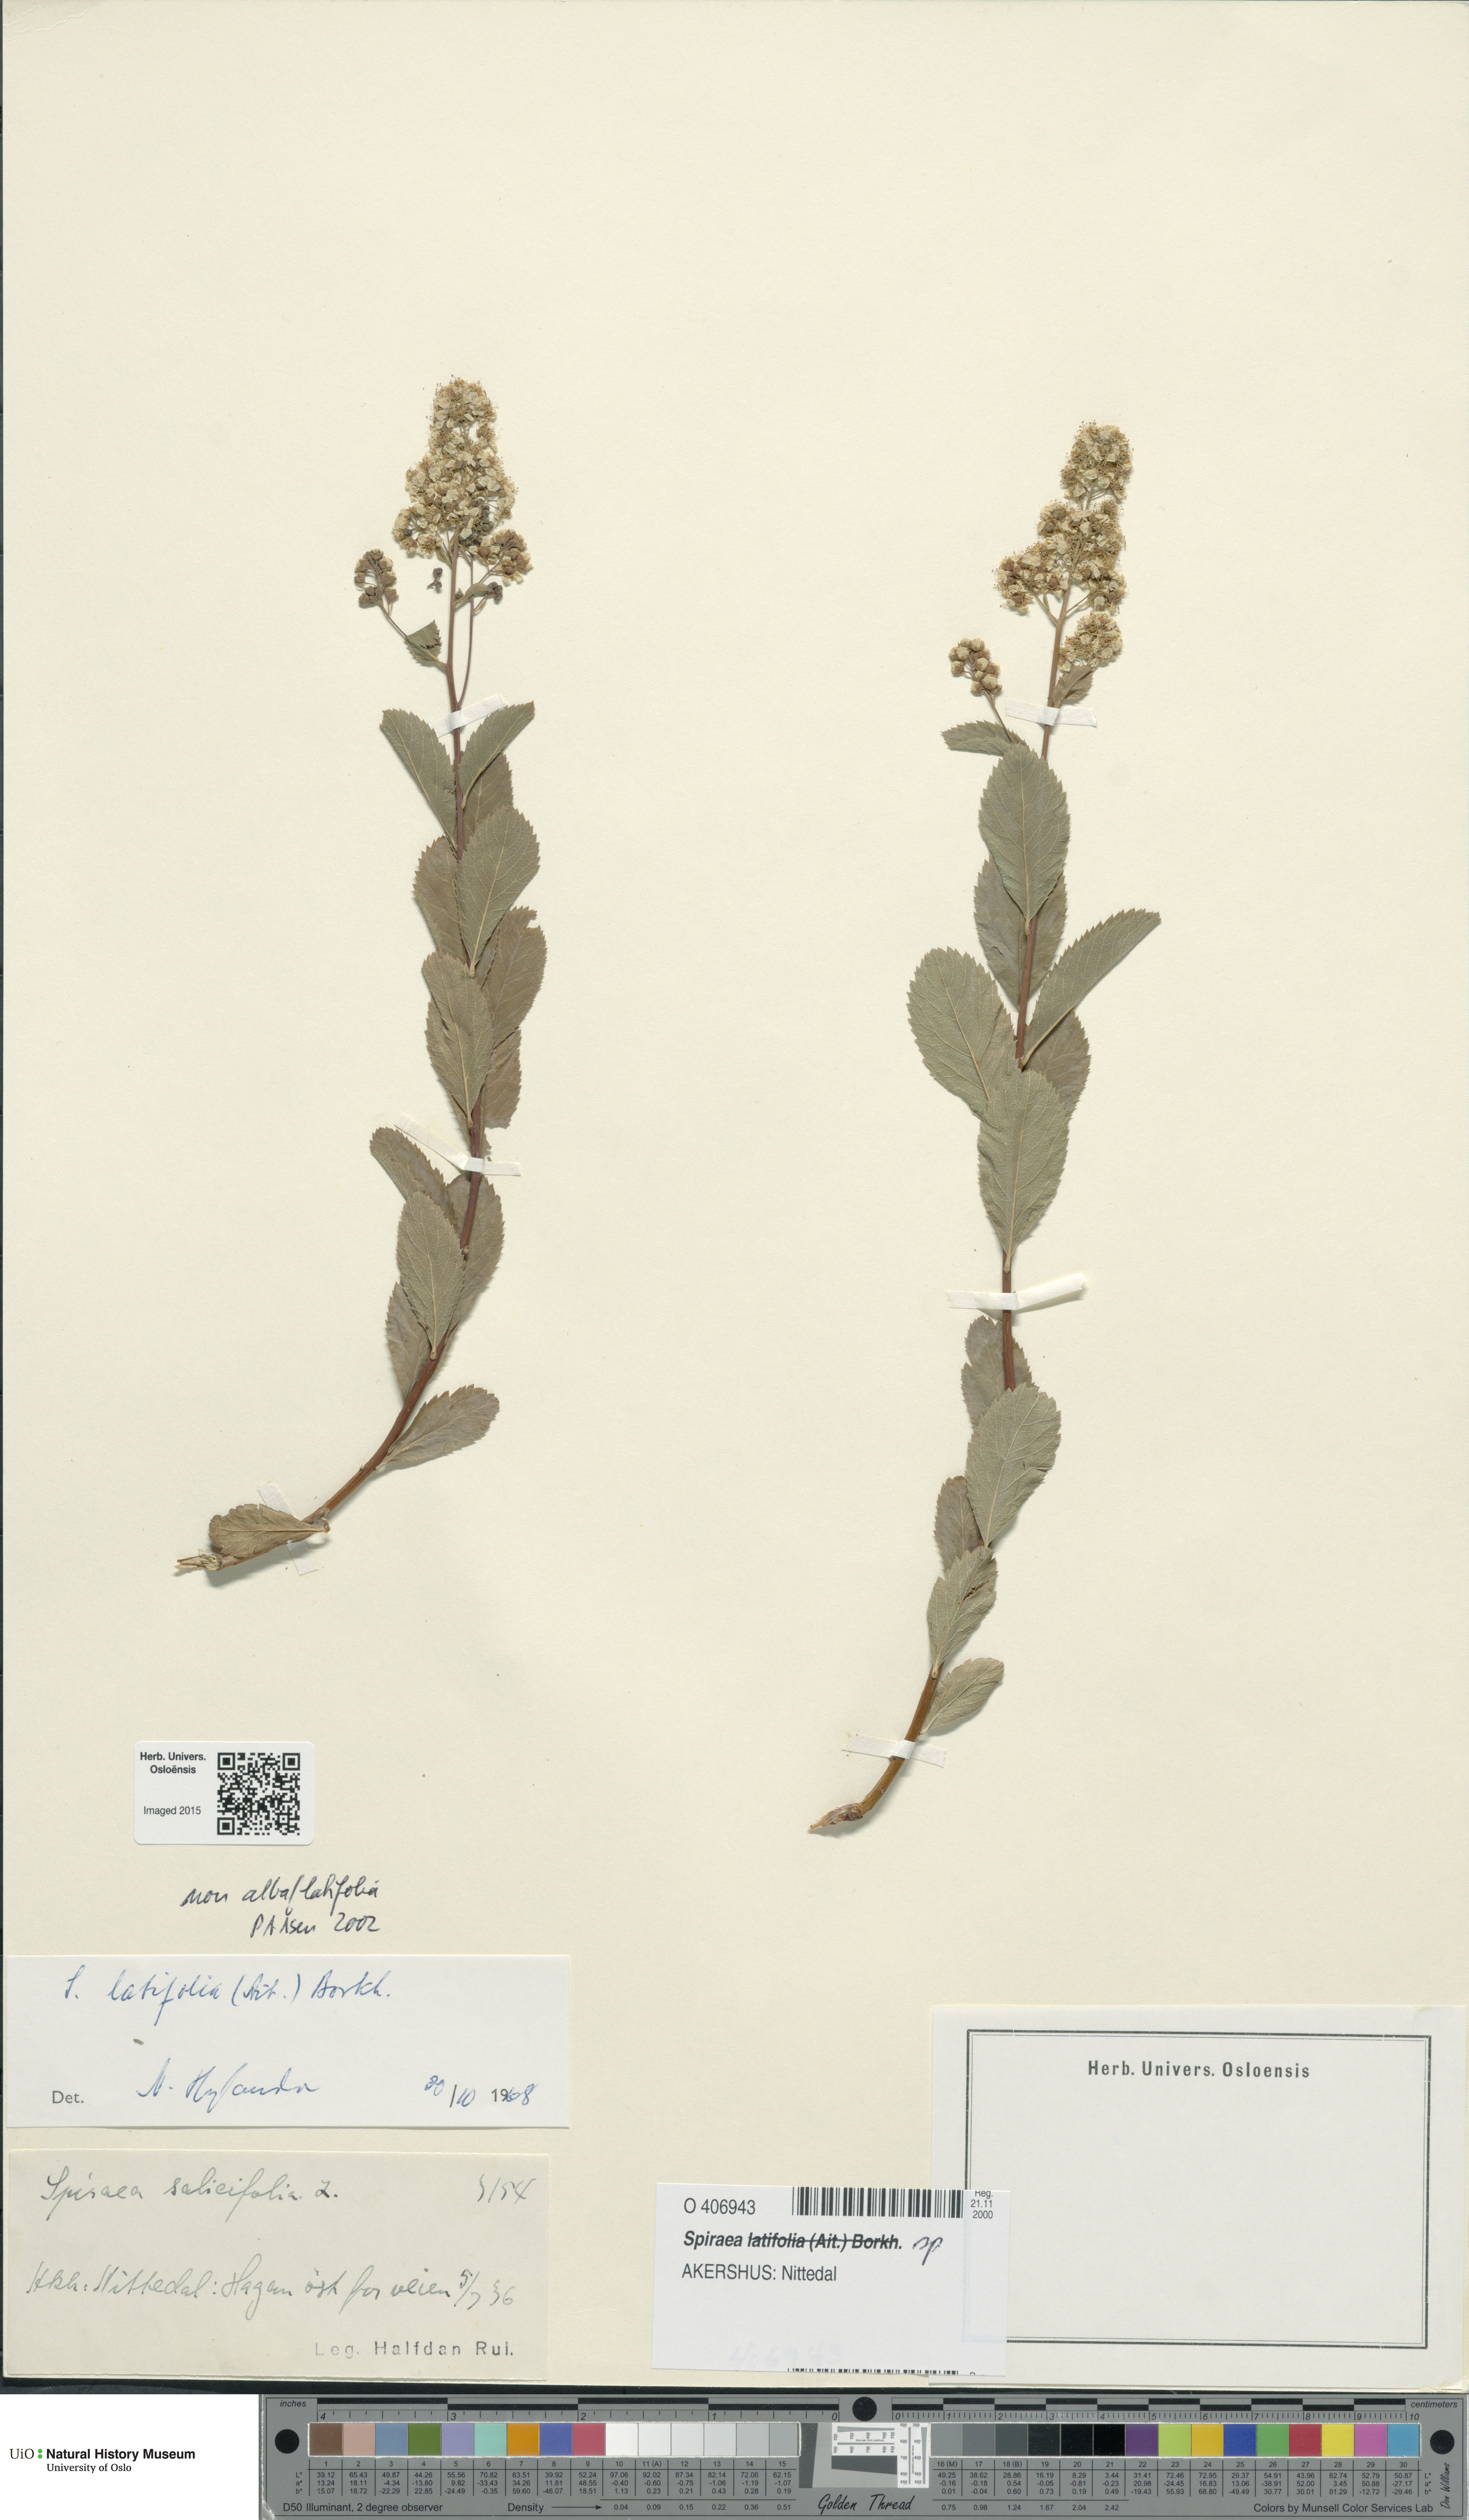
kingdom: Plantae
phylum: Tracheophyta
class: Magnoliopsida
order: Rosales
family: Rosaceae
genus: Spiraea
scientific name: Spiraea
